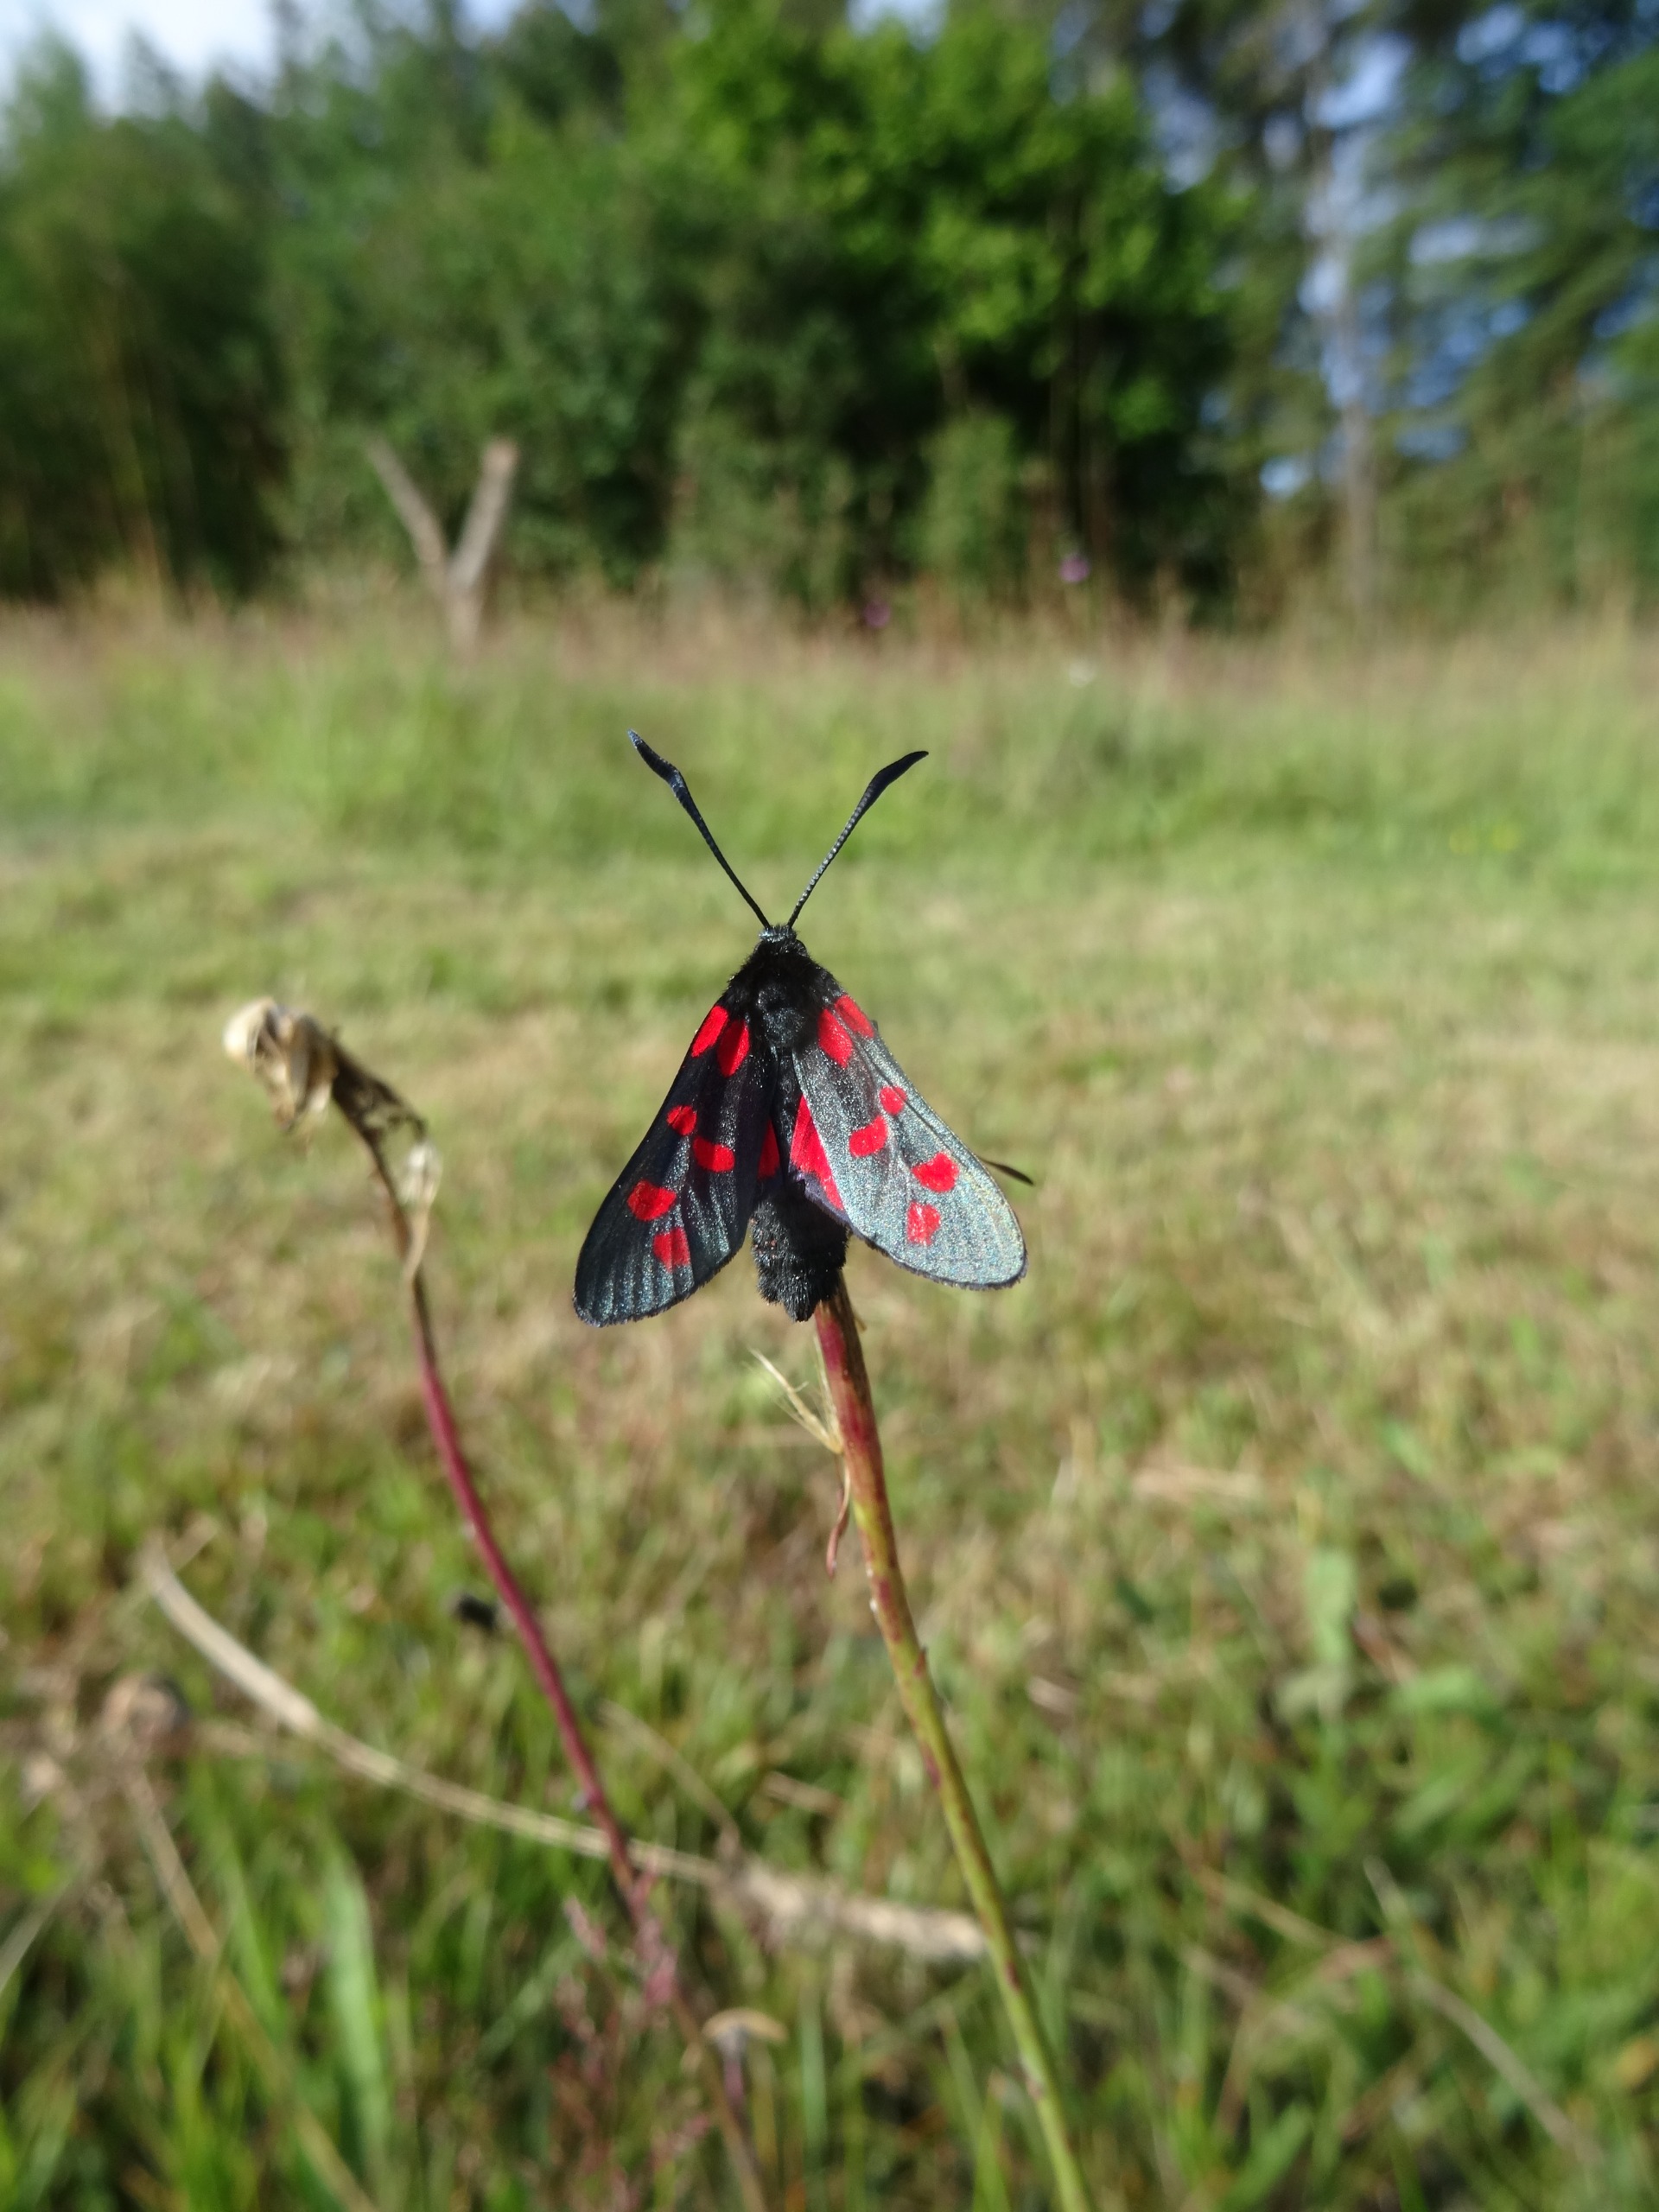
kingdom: Animalia
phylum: Arthropoda
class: Insecta
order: Lepidoptera
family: Zygaenidae
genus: Zygaena
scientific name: Zygaena filipendulae
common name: Seksplettet køllesværmer
